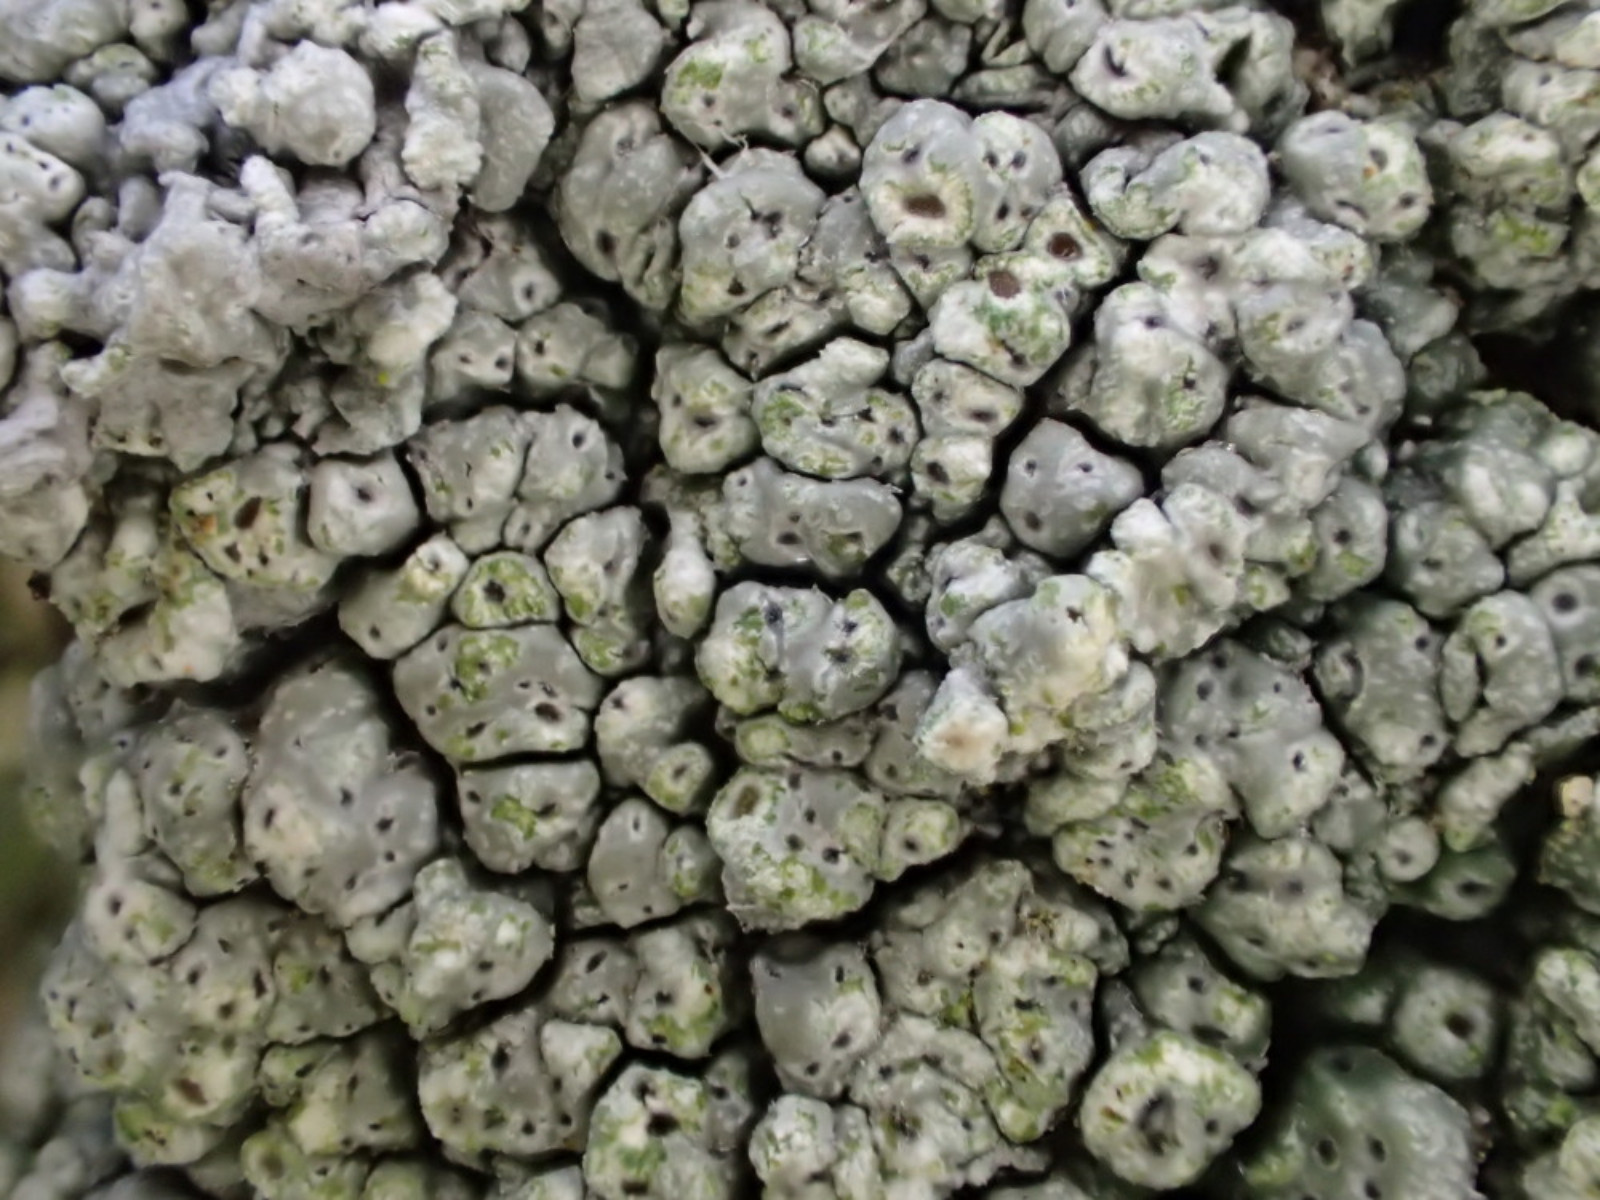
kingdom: Fungi
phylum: Ascomycota
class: Lecanoromycetes
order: Pertusariales
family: Pertusariaceae
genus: Pertusaria
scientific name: Pertusaria pertusa
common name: almindelig prikvortelav
